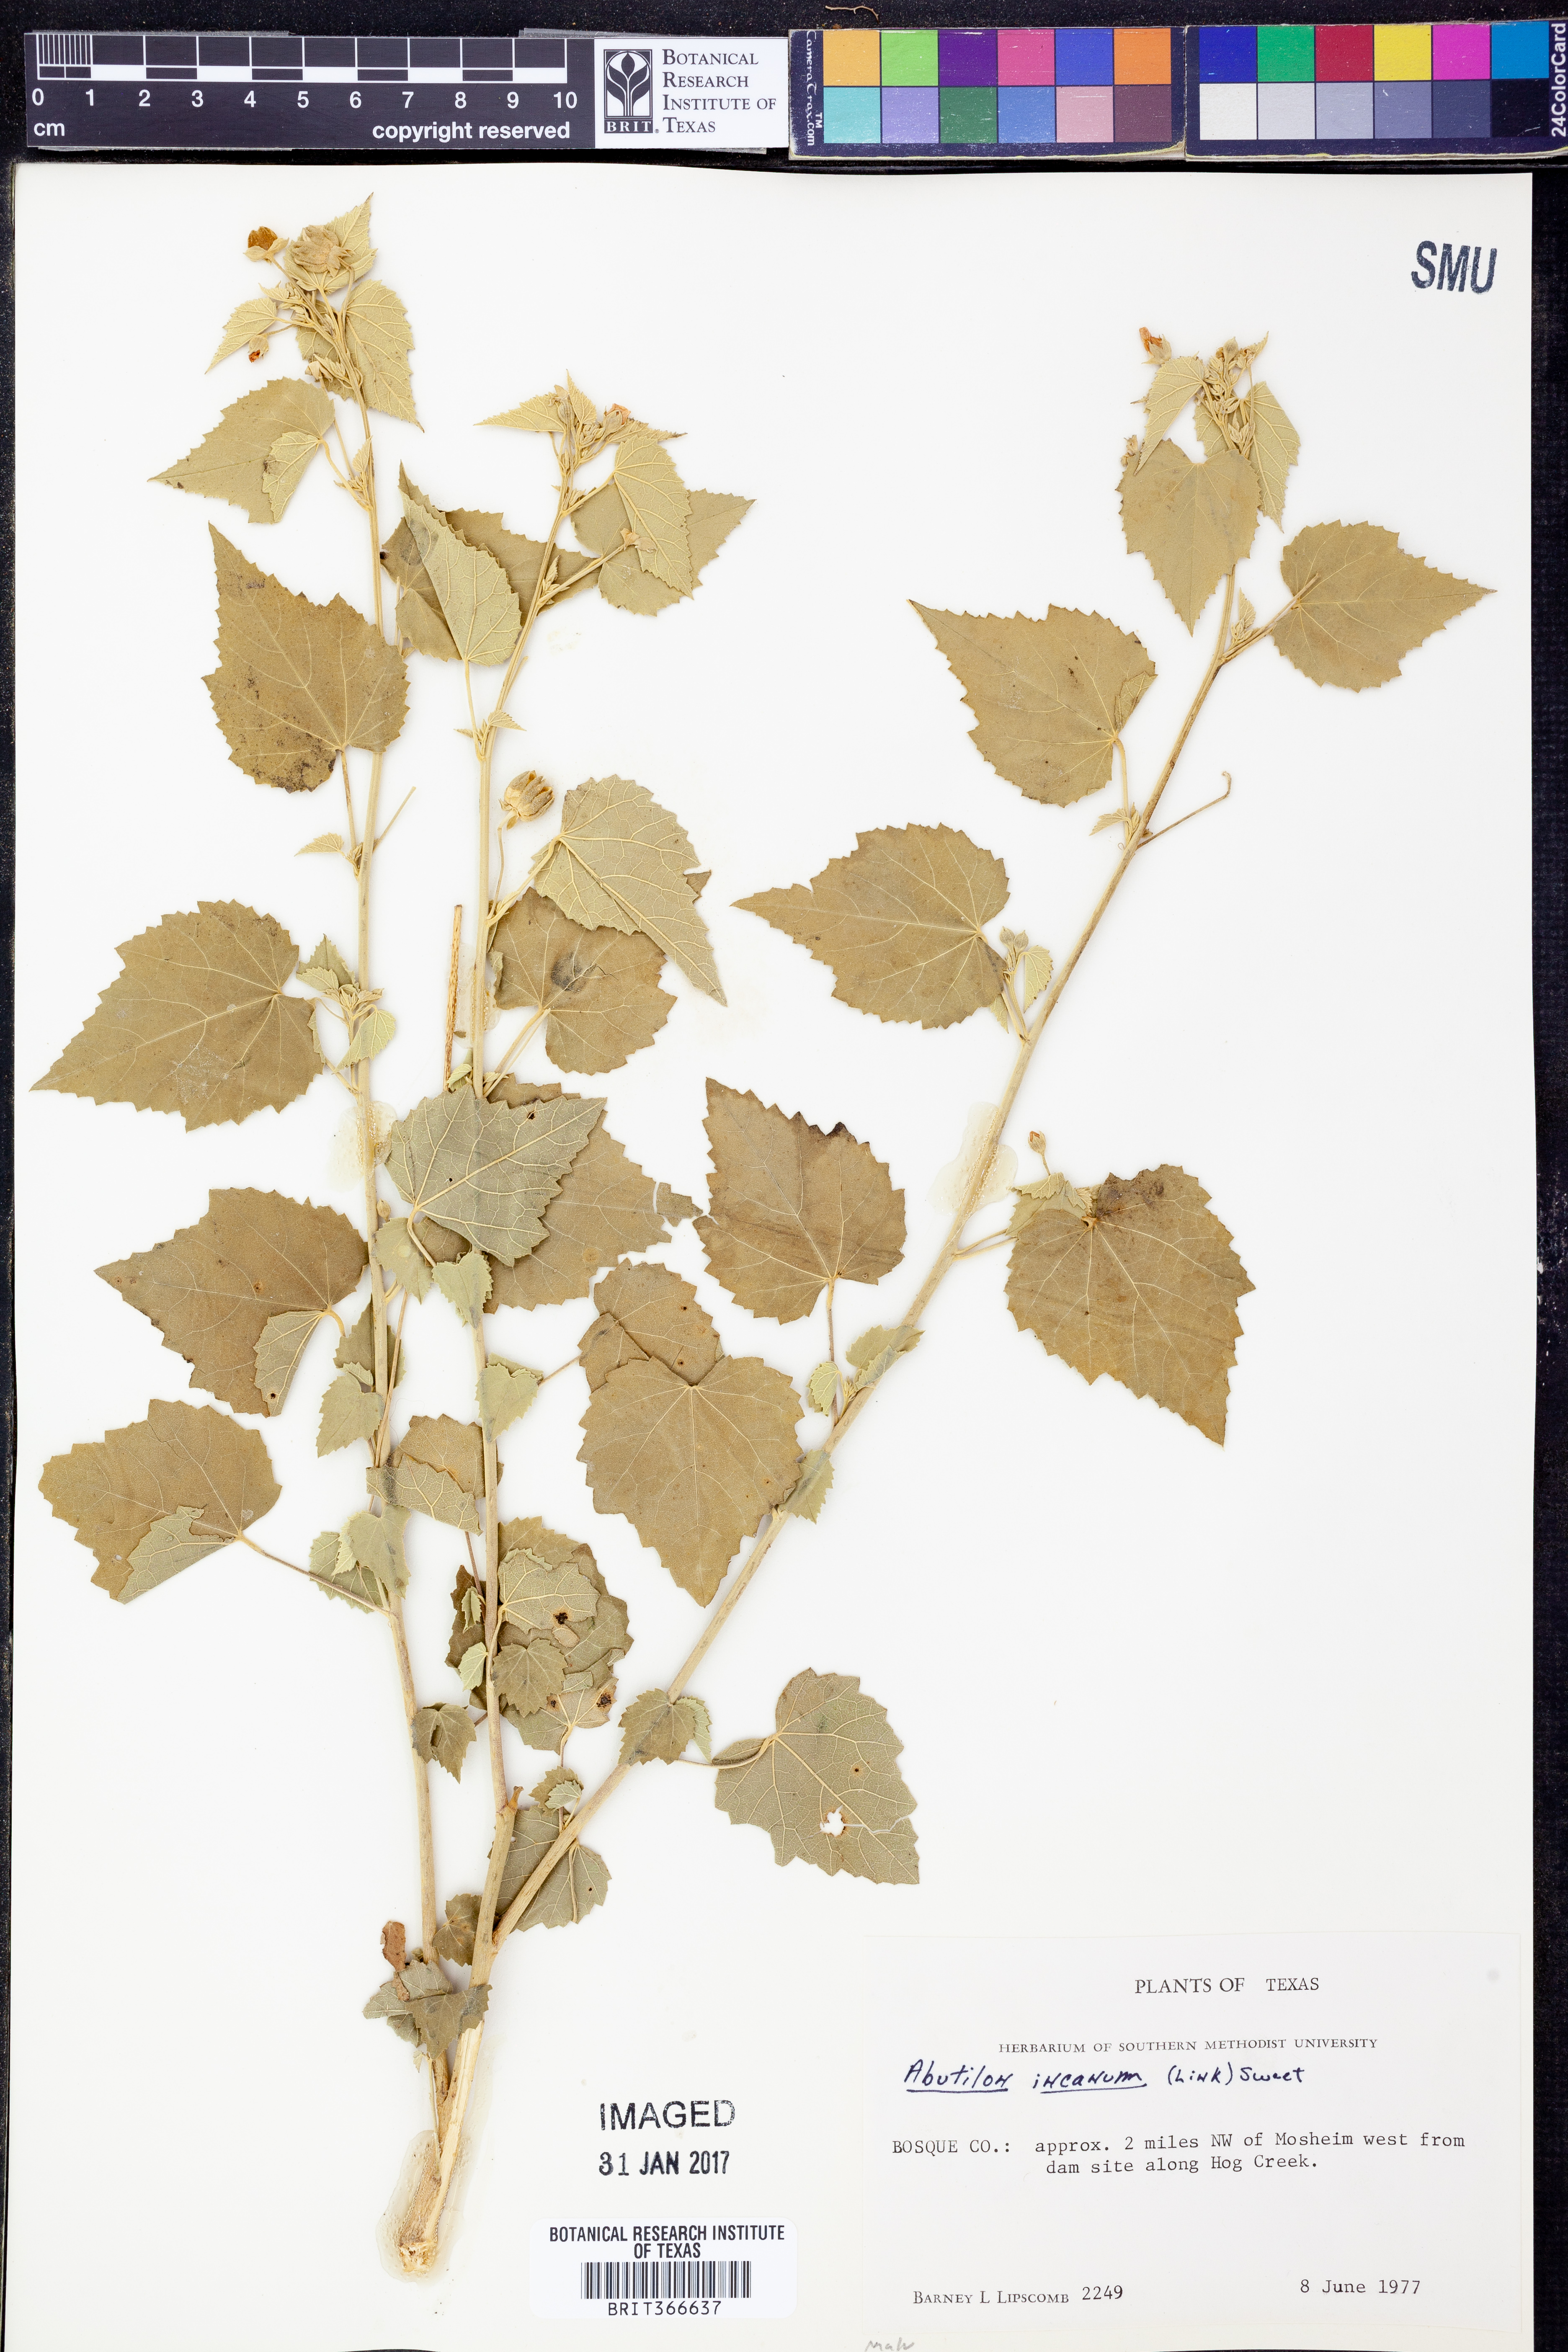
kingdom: Plantae
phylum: Tracheophyta
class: Magnoliopsida
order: Malvales
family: Malvaceae
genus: Abutilon
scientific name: Abutilon incanum
